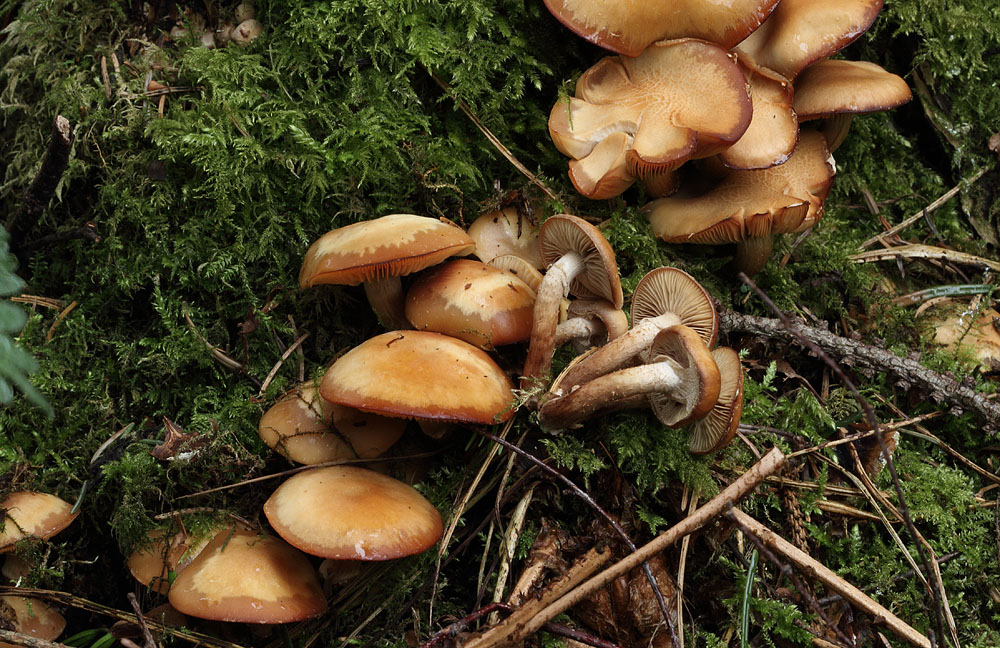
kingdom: Fungi
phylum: Basidiomycota
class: Agaricomycetes
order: Agaricales
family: Strophariaceae
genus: Kuehneromyces
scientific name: Kuehneromyces mutabilis
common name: foranderlig skælhat
